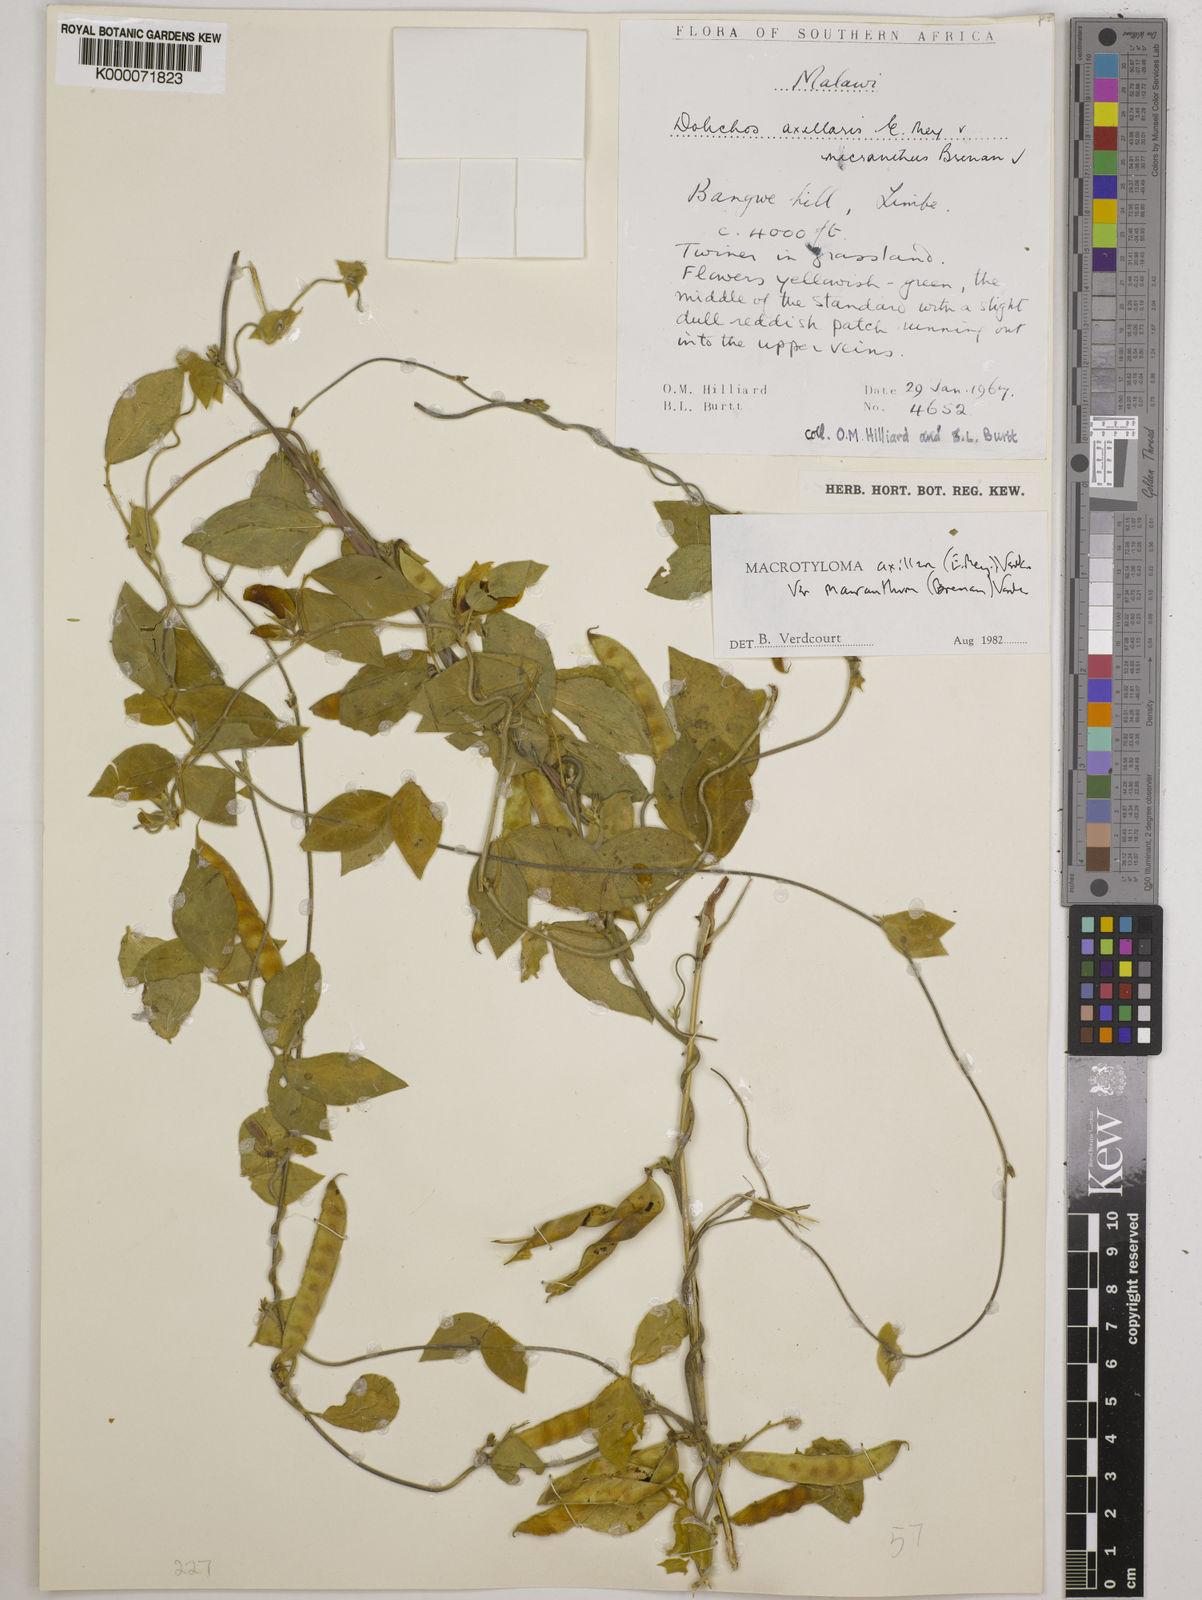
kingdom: Plantae
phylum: Tracheophyta
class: Magnoliopsida
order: Fabales
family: Fabaceae
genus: Macrotyloma
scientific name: Macrotyloma axillare
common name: Perennial horsegram
